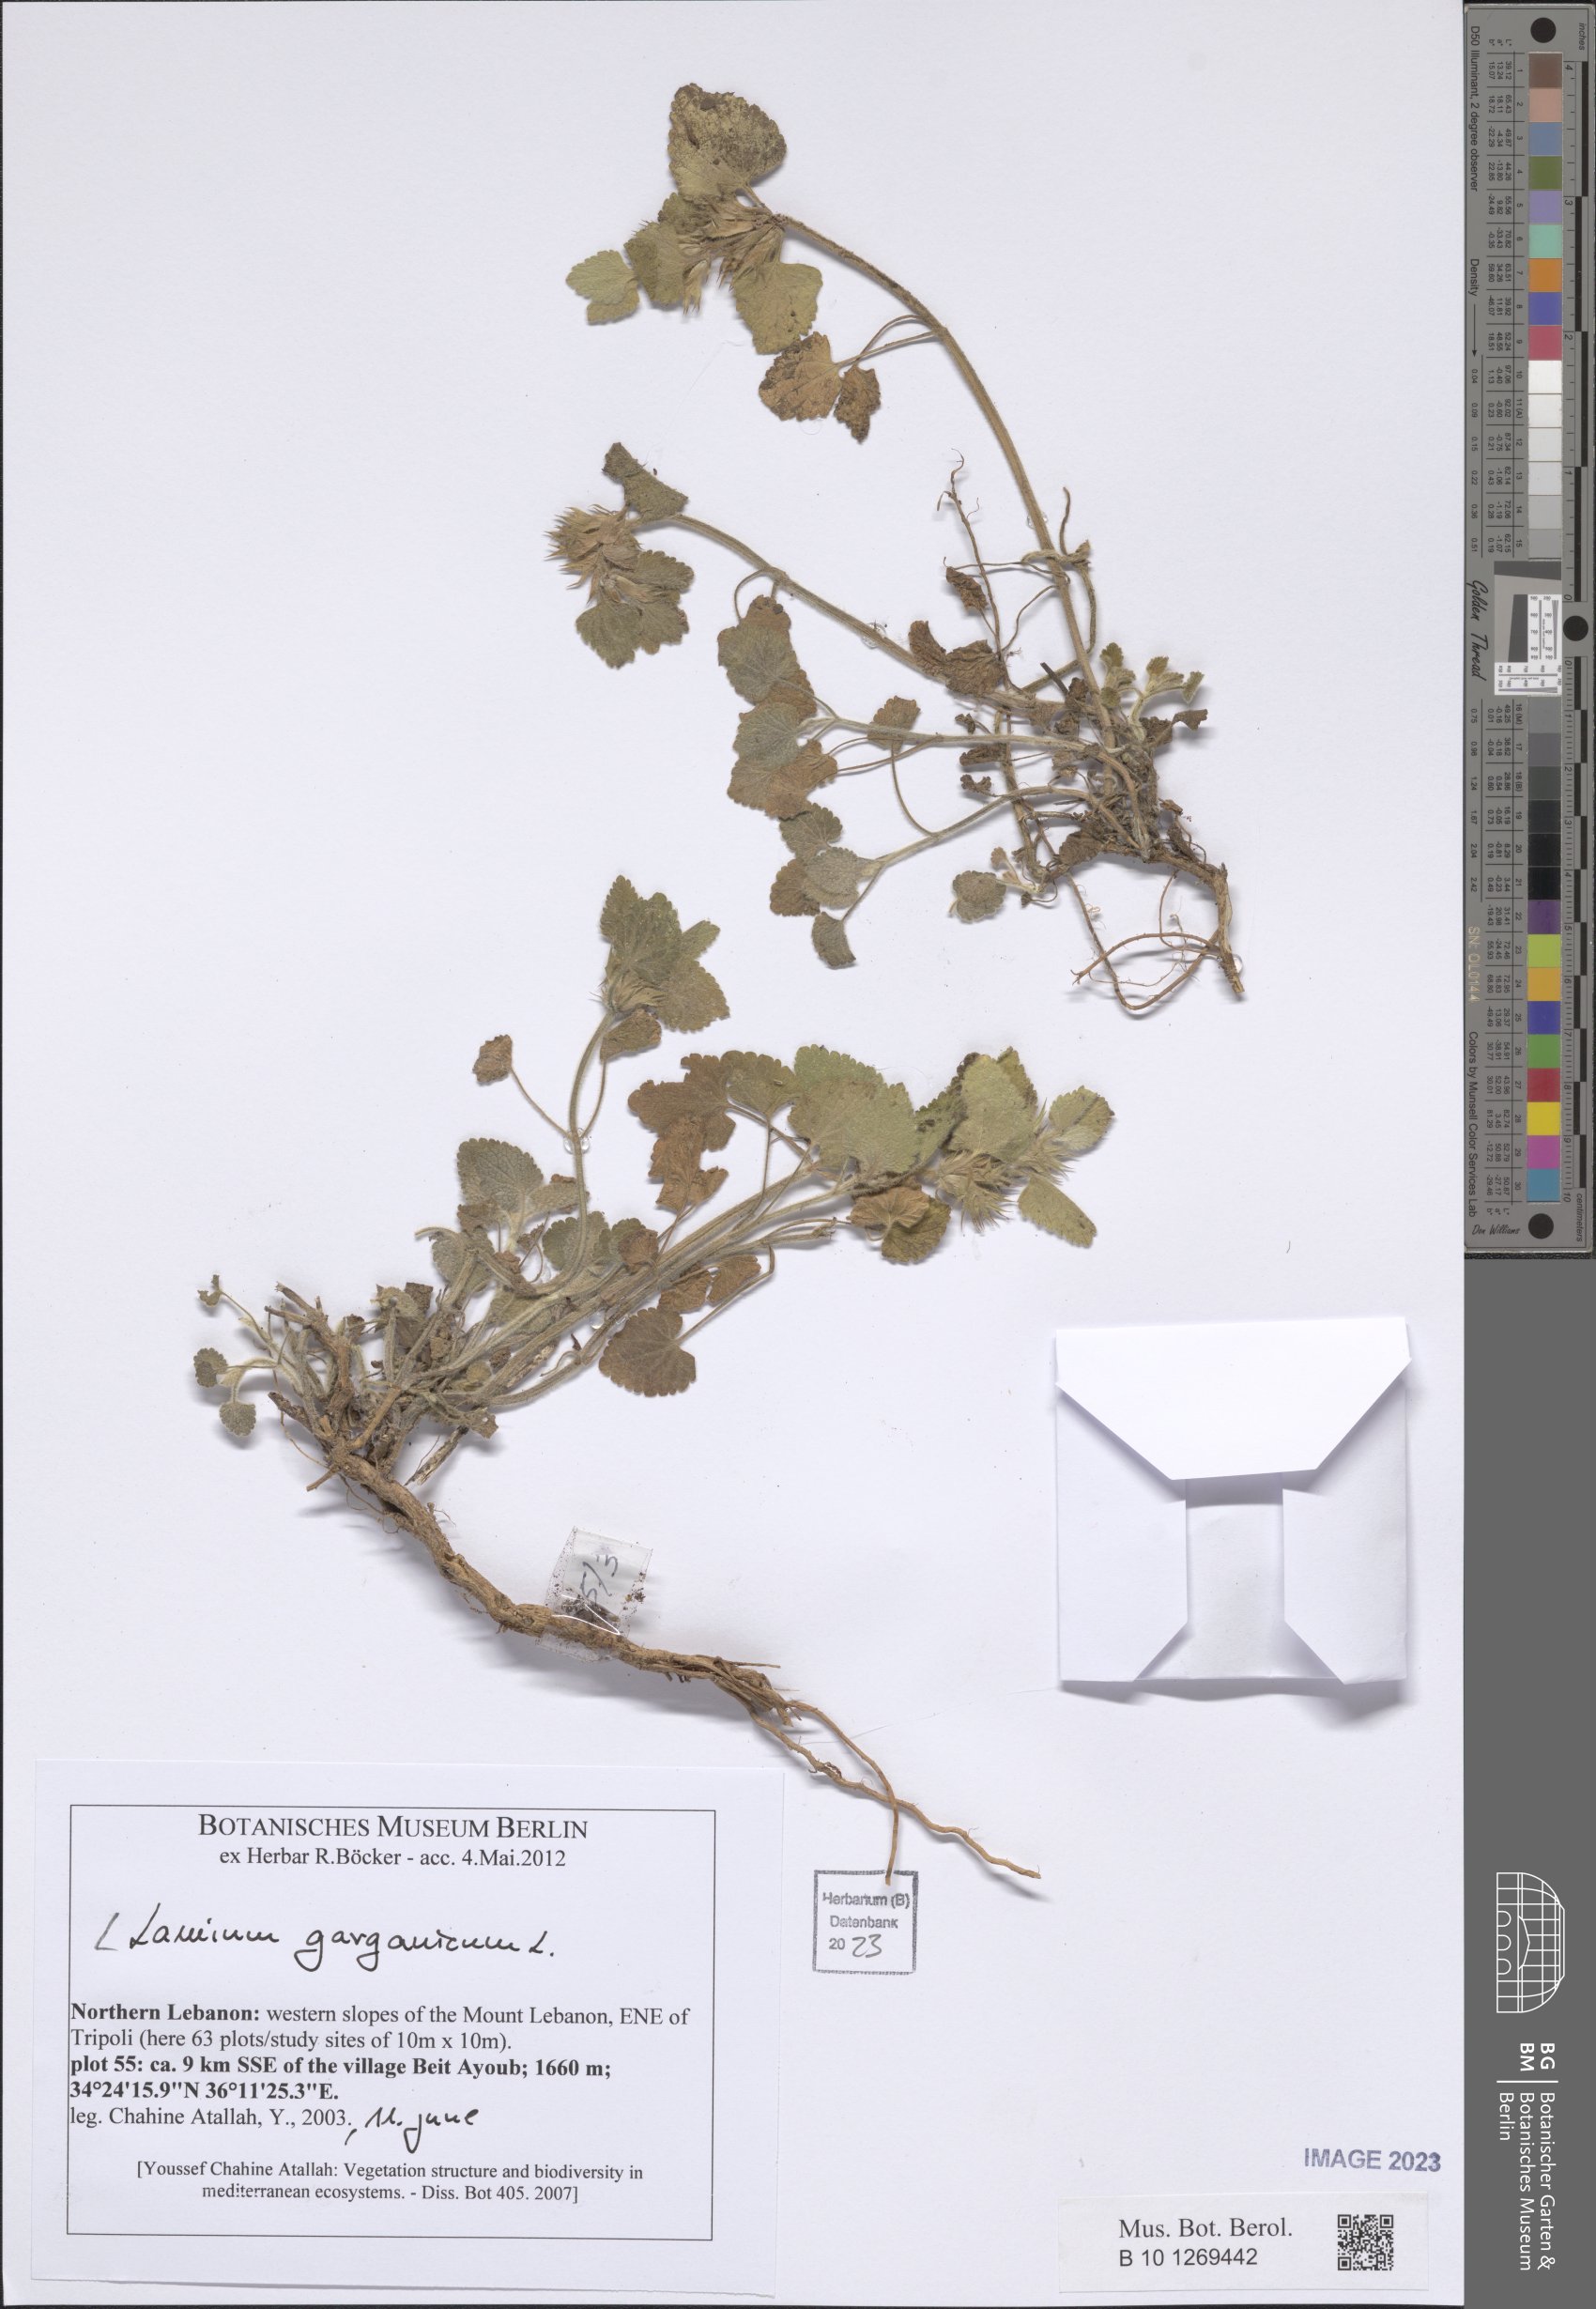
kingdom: Plantae
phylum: Tracheophyta
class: Magnoliopsida
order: Lamiales
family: Lamiaceae
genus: Lamium
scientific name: Lamium garganicum
